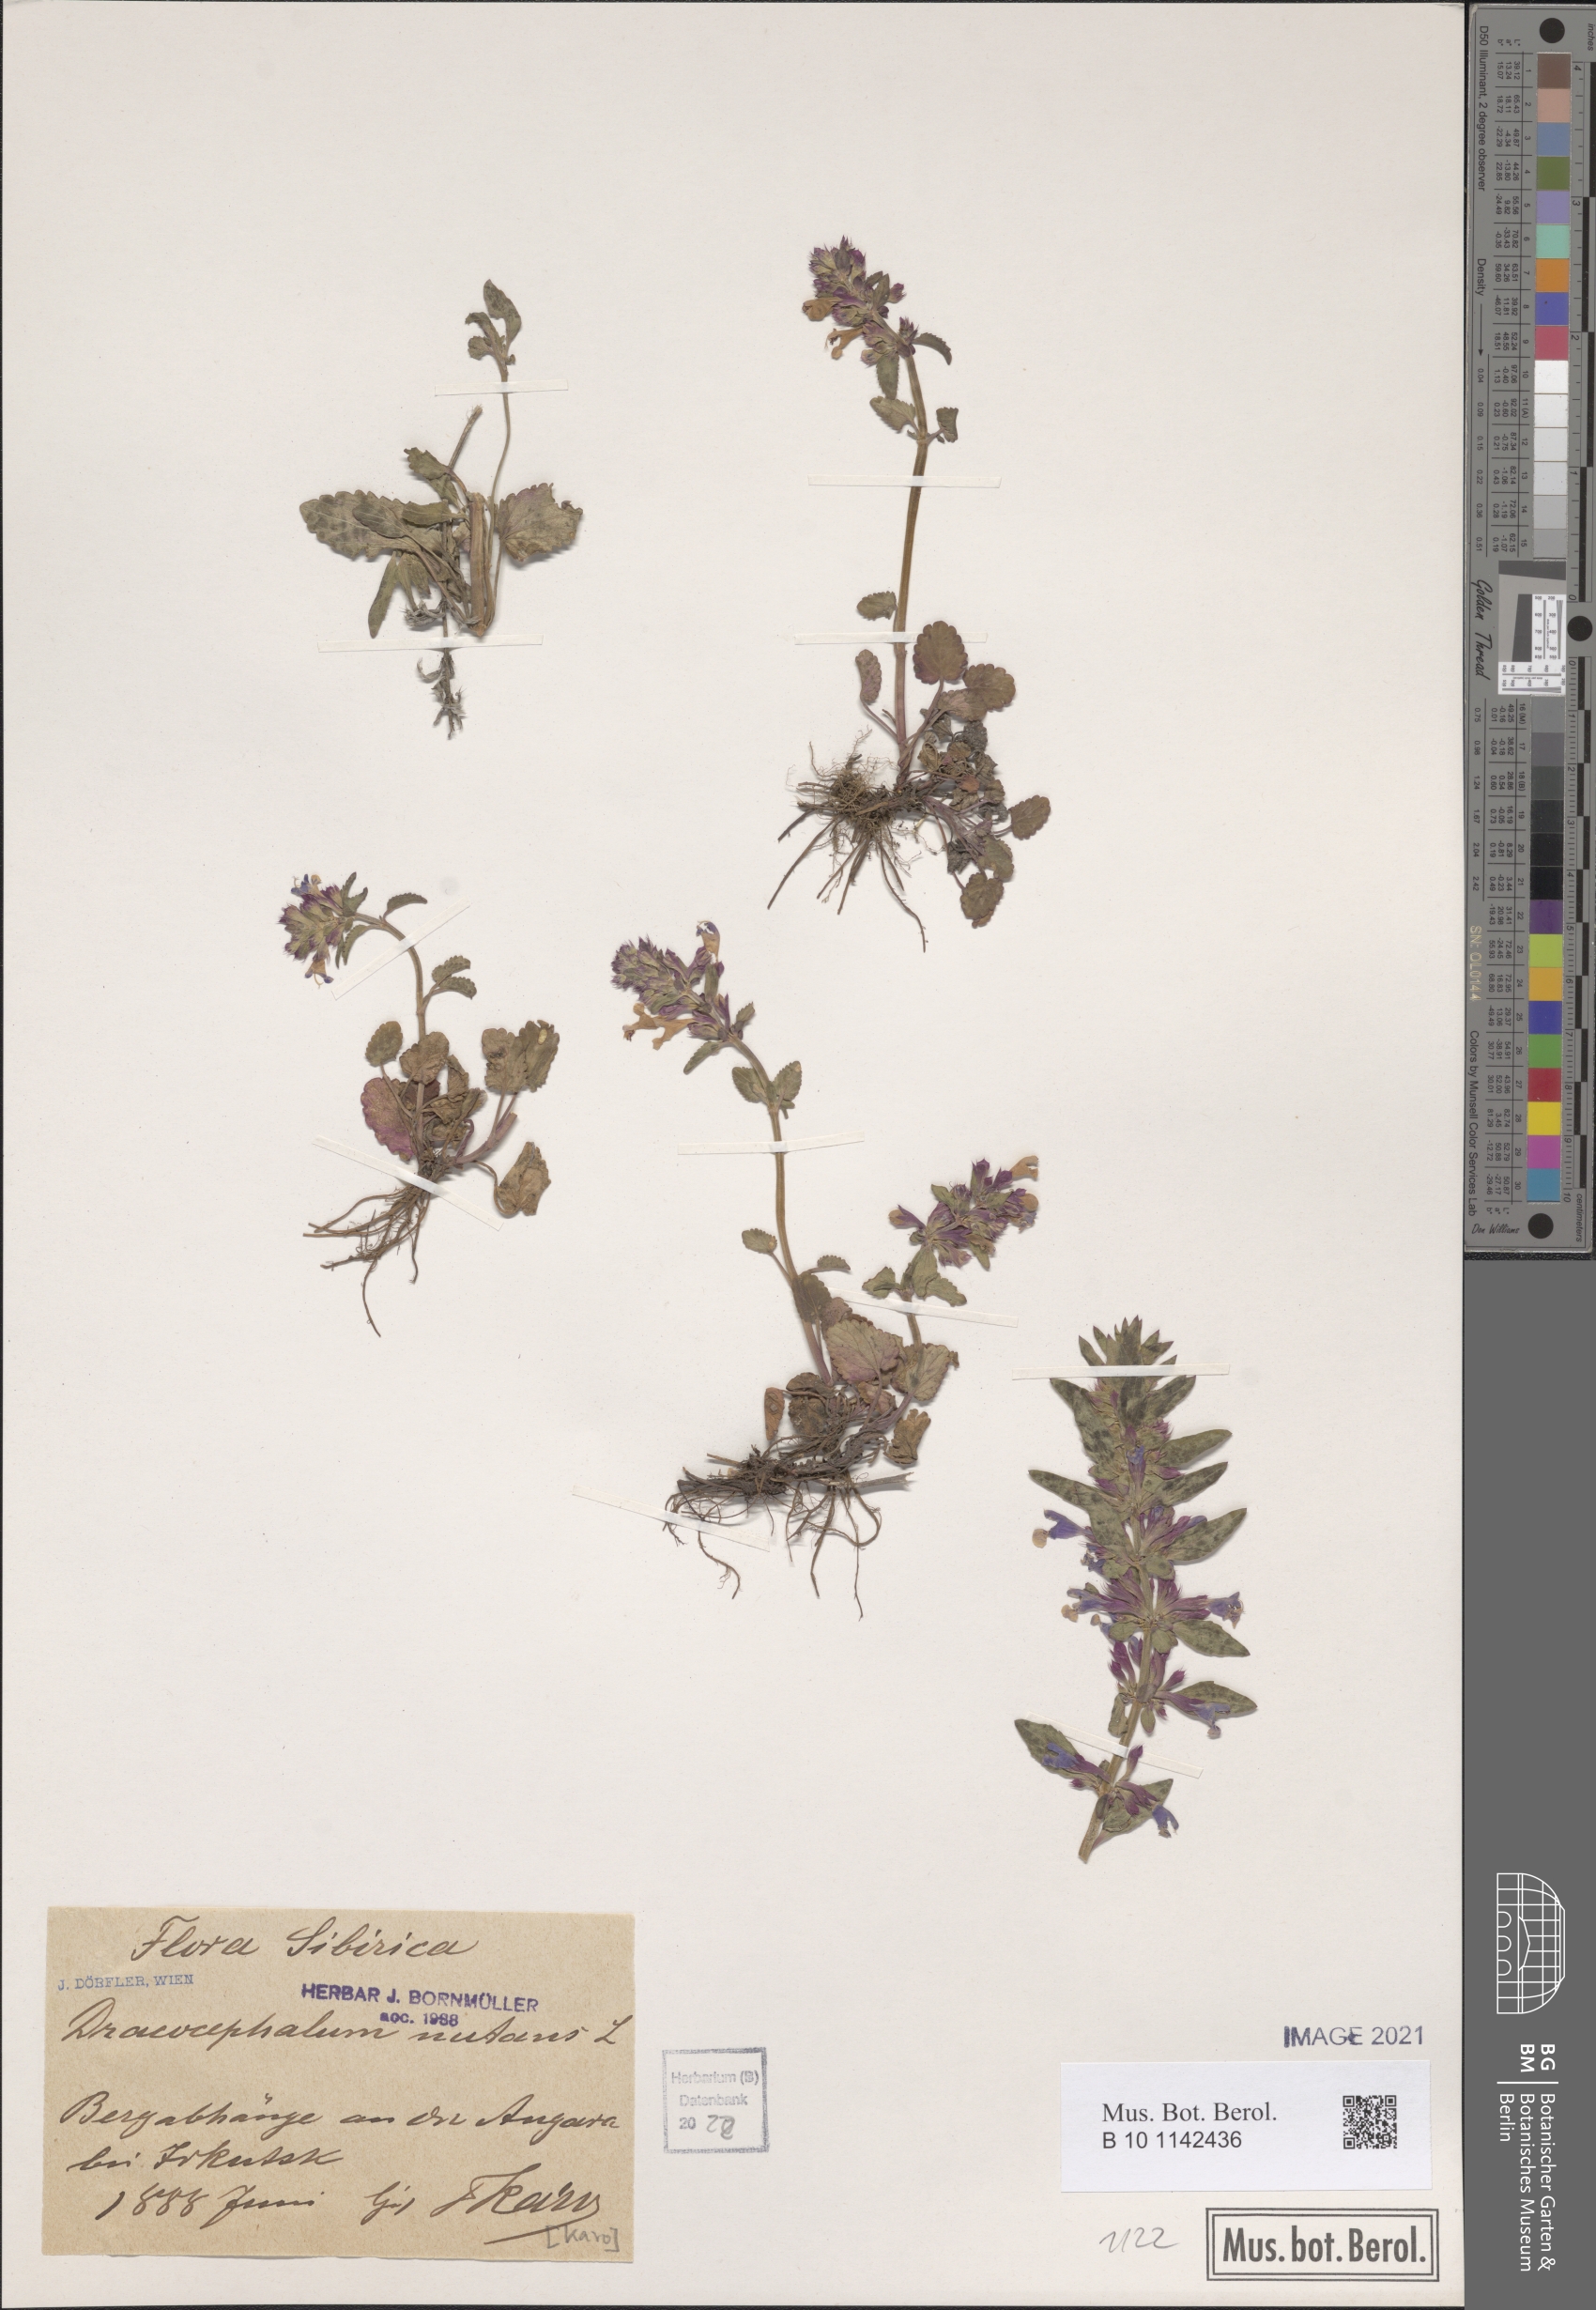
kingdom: Plantae
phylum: Tracheophyta
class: Magnoliopsida
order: Lamiales
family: Lamiaceae
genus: Dracocephalum
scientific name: Dracocephalum nutans
